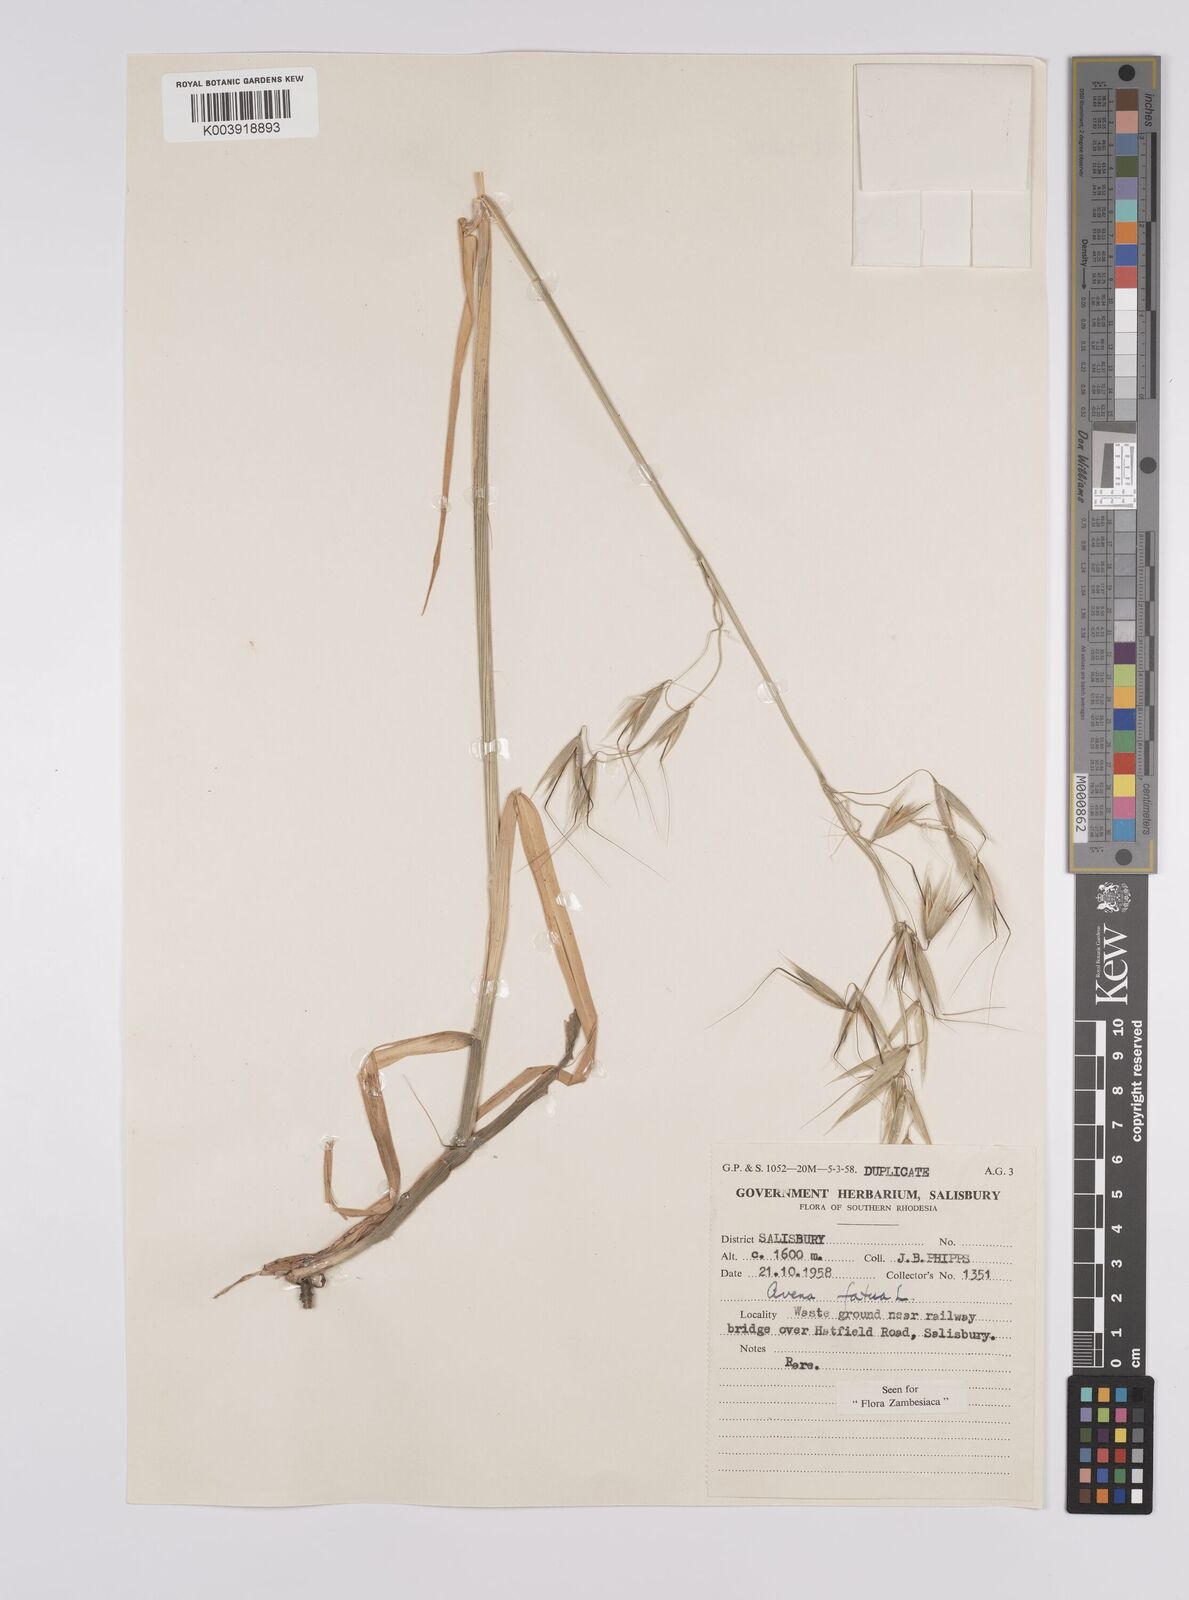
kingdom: Plantae
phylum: Tracheophyta
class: Liliopsida
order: Poales
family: Poaceae
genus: Avena
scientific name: Avena fatua
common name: Wild oat
